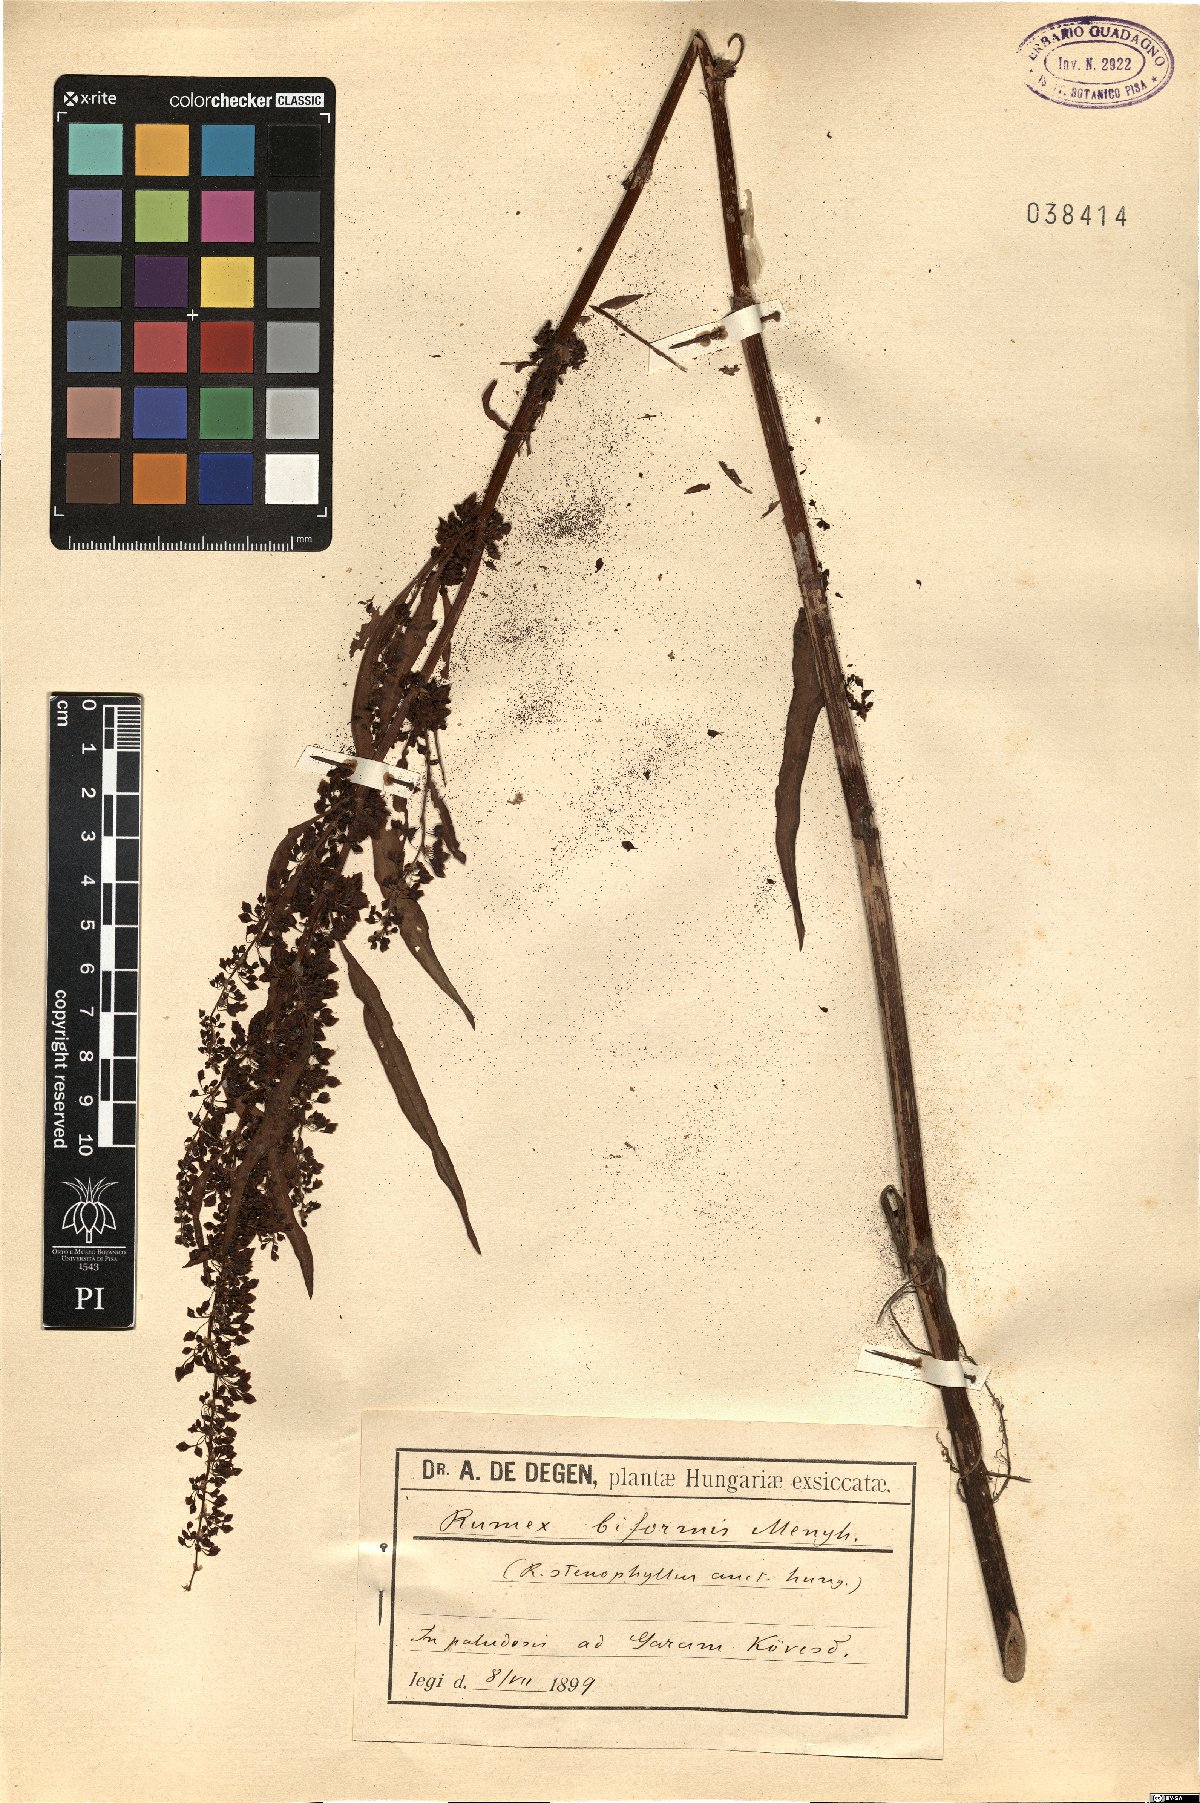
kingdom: Plantae
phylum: Tracheophyta
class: Magnoliopsida
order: Caryophyllales
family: Polygonaceae
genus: Rumex
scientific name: Rumex stenophyllus
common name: Narrowleaf dock
